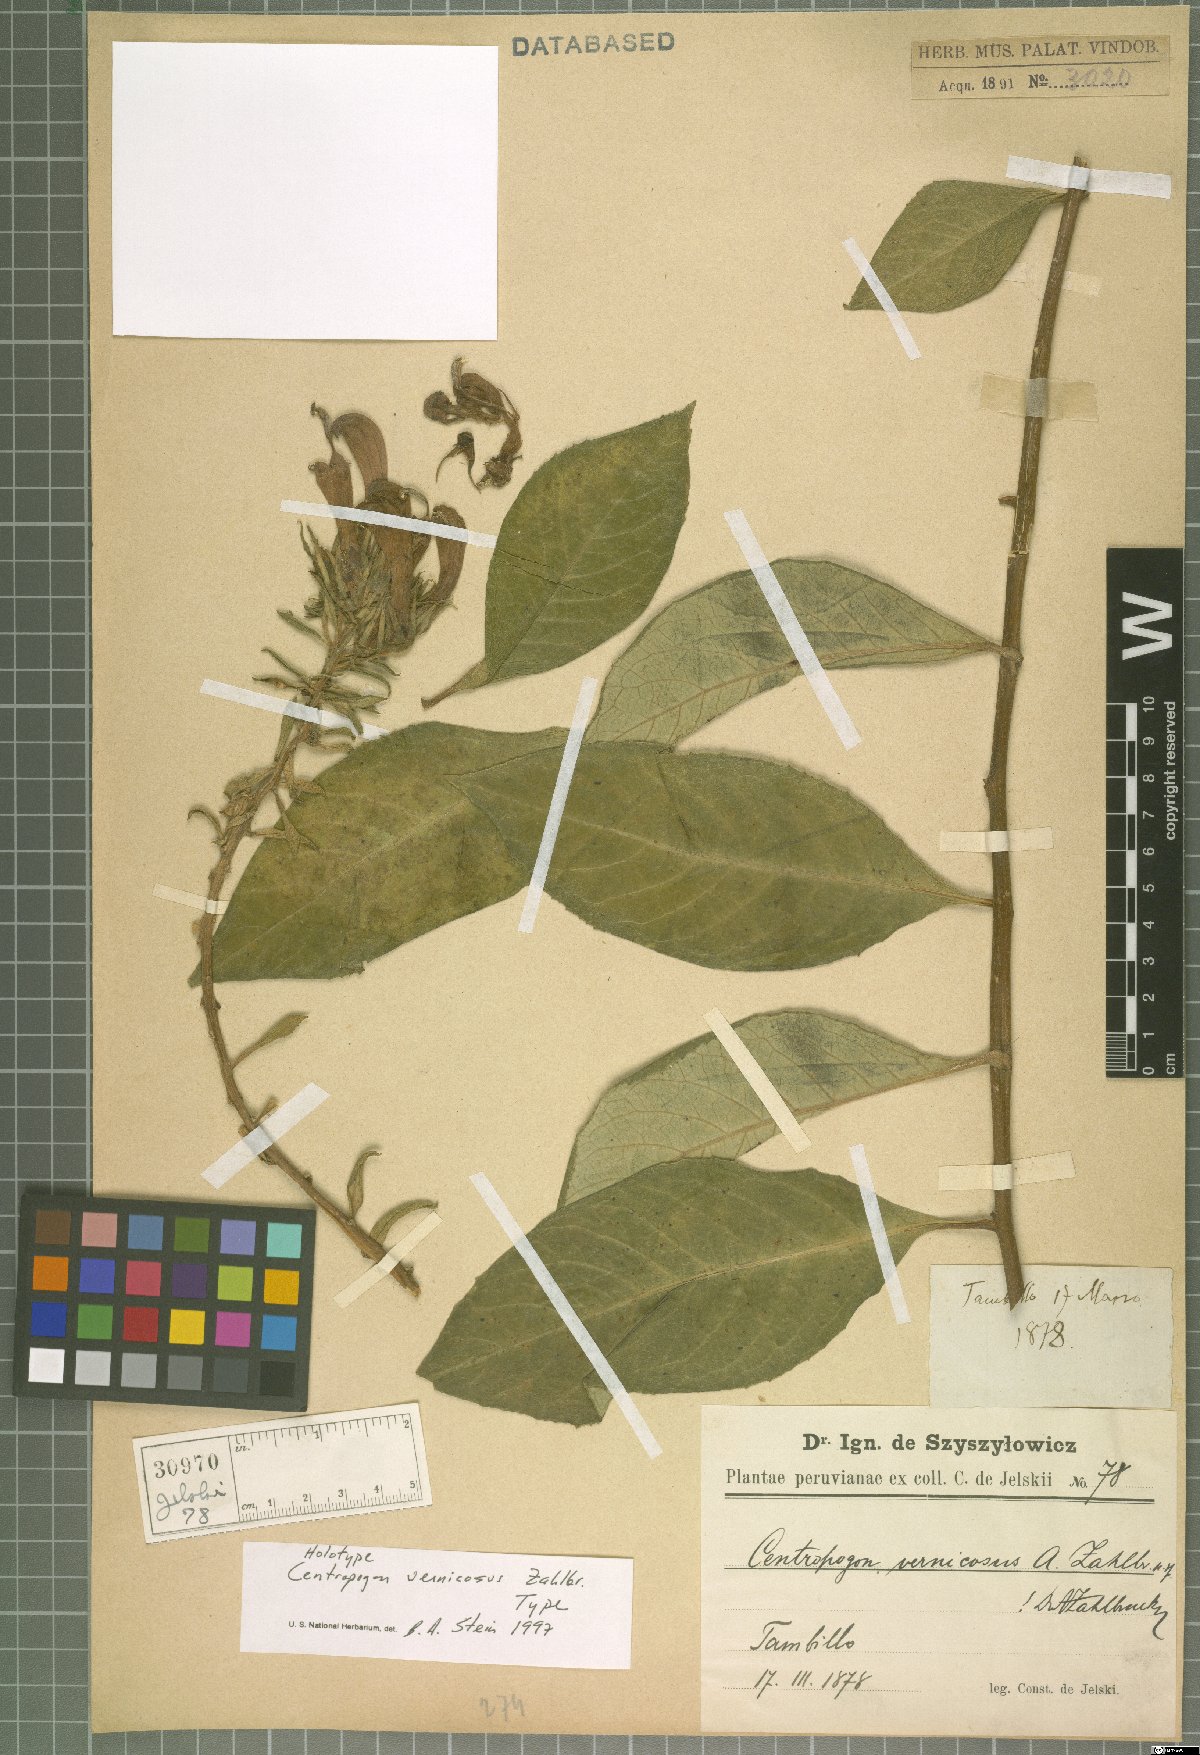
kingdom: Plantae
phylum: Tracheophyta
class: Magnoliopsida
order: Asterales
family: Campanulaceae
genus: Centropogon
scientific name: Centropogon vernicosus
